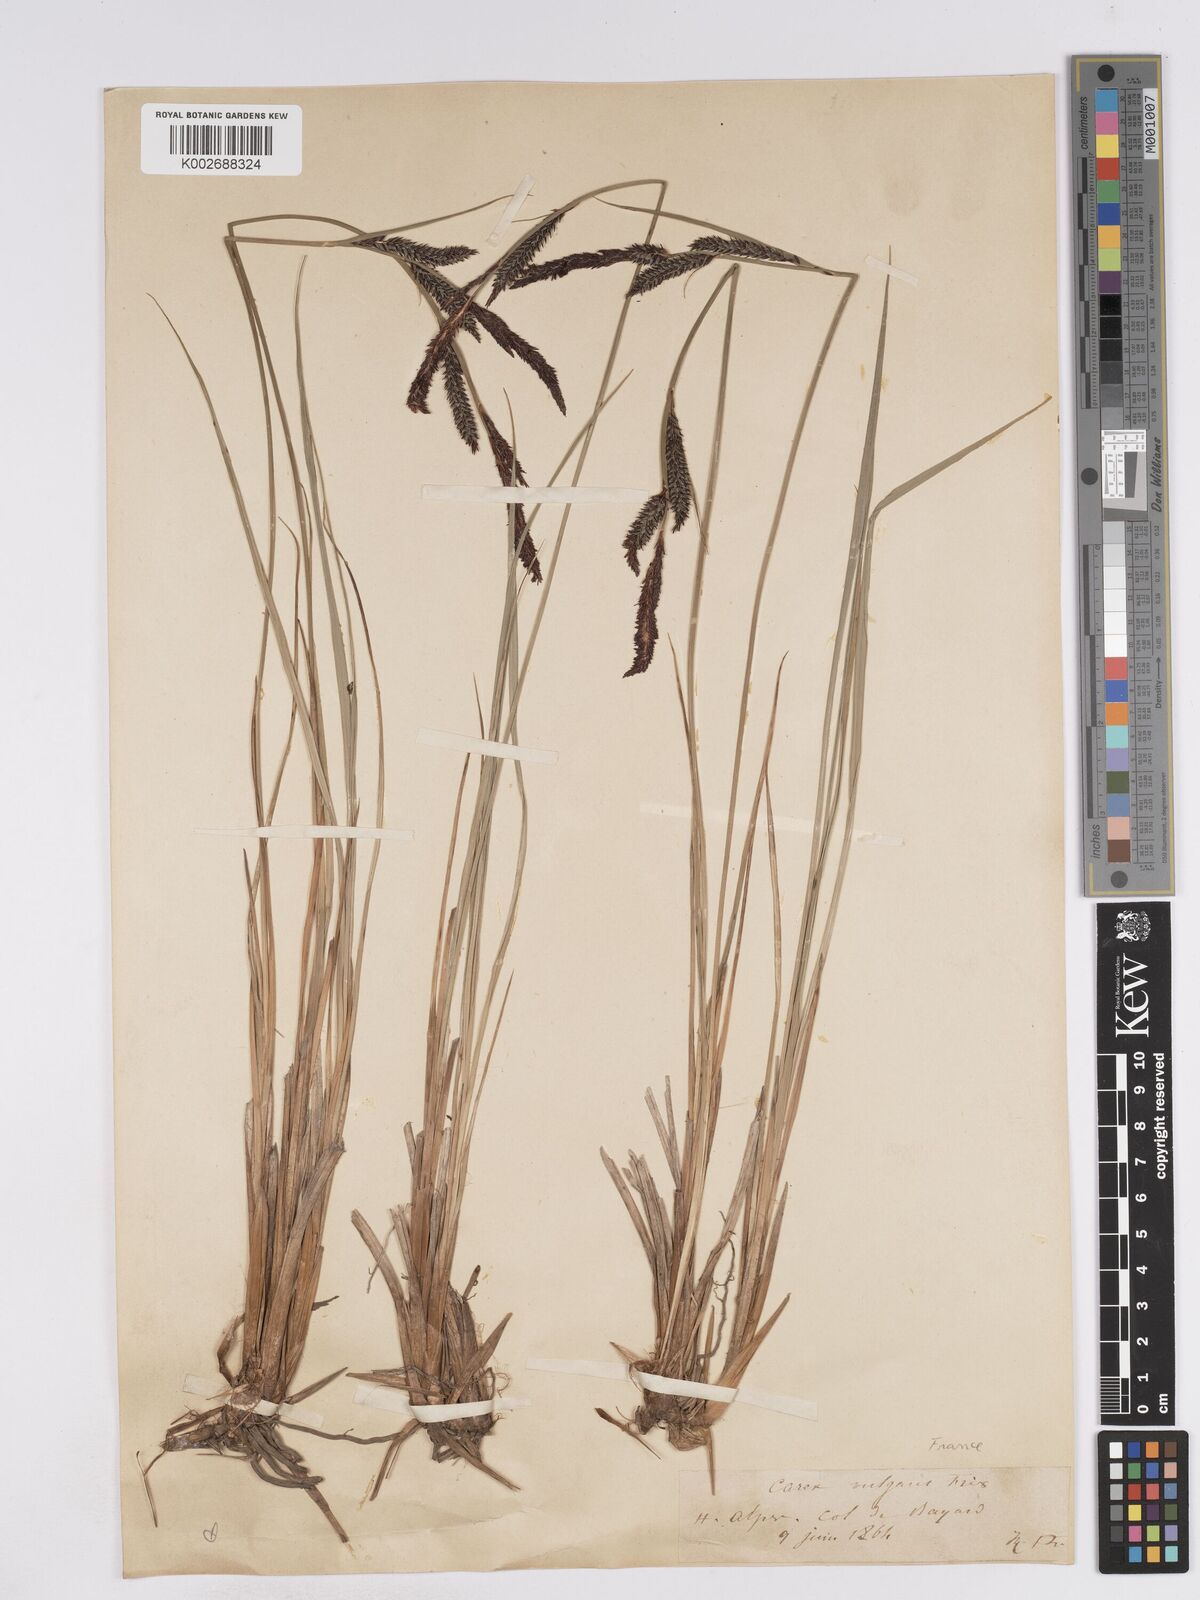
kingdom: Plantae
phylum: Tracheophyta
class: Liliopsida
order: Poales
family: Cyperaceae
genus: Carex
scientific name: Carex elata
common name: Tufted sedge
